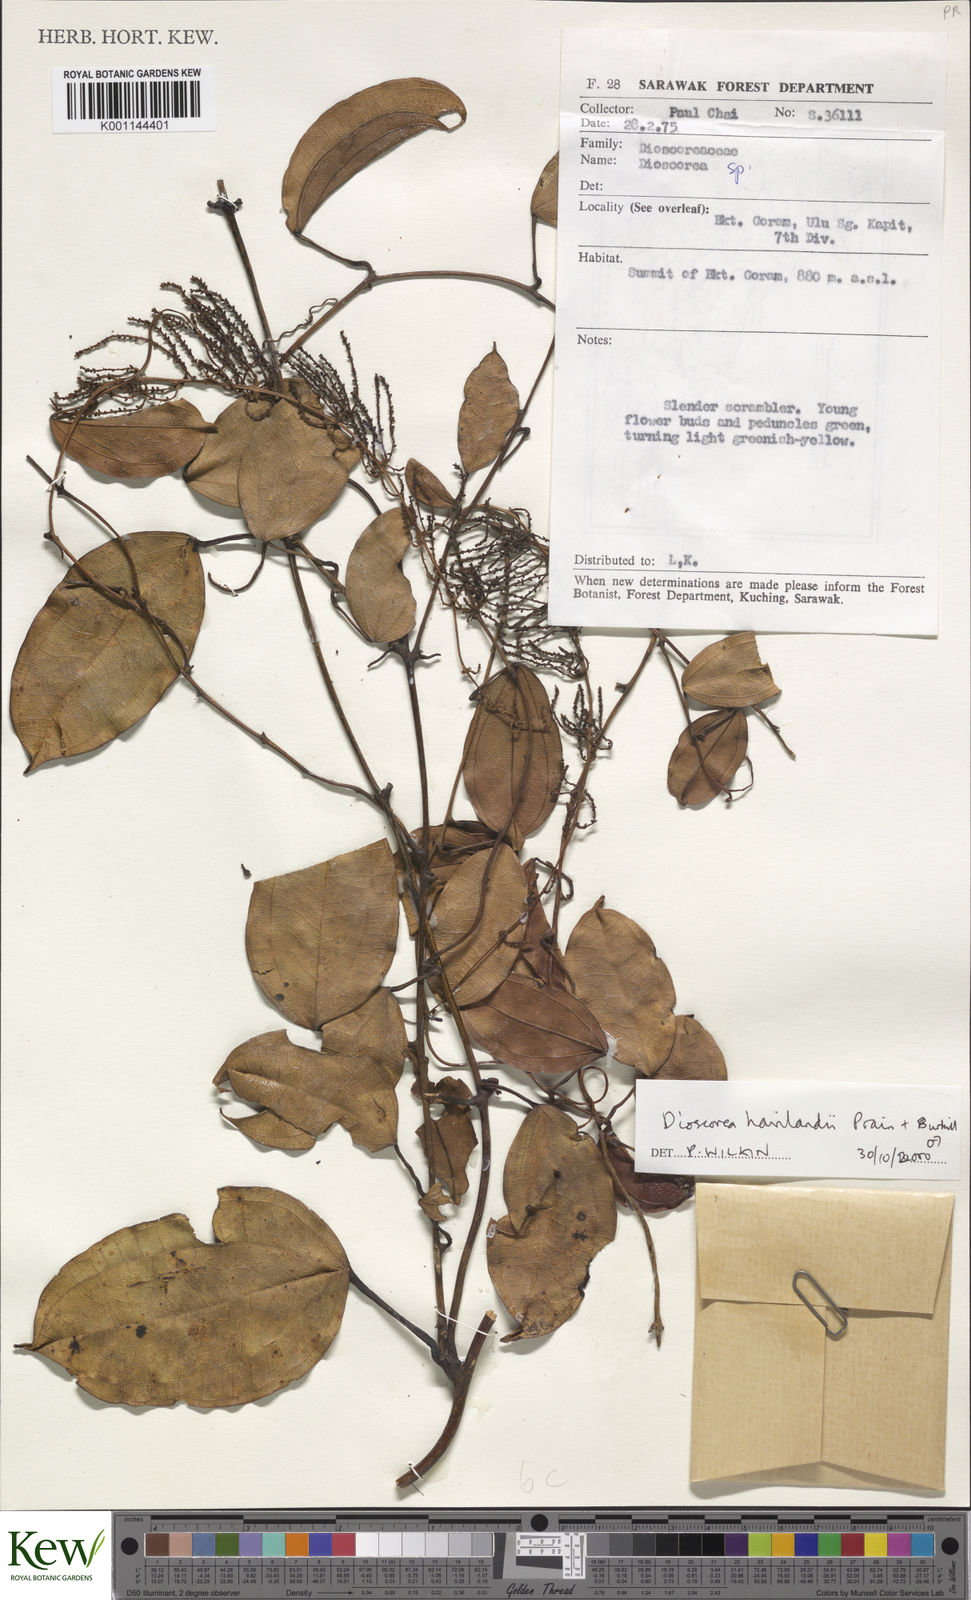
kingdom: Plantae
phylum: Tracheophyta
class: Liliopsida
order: Dioscoreales
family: Dioscoreaceae
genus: Dioscorea
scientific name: Dioscorea havilandii
